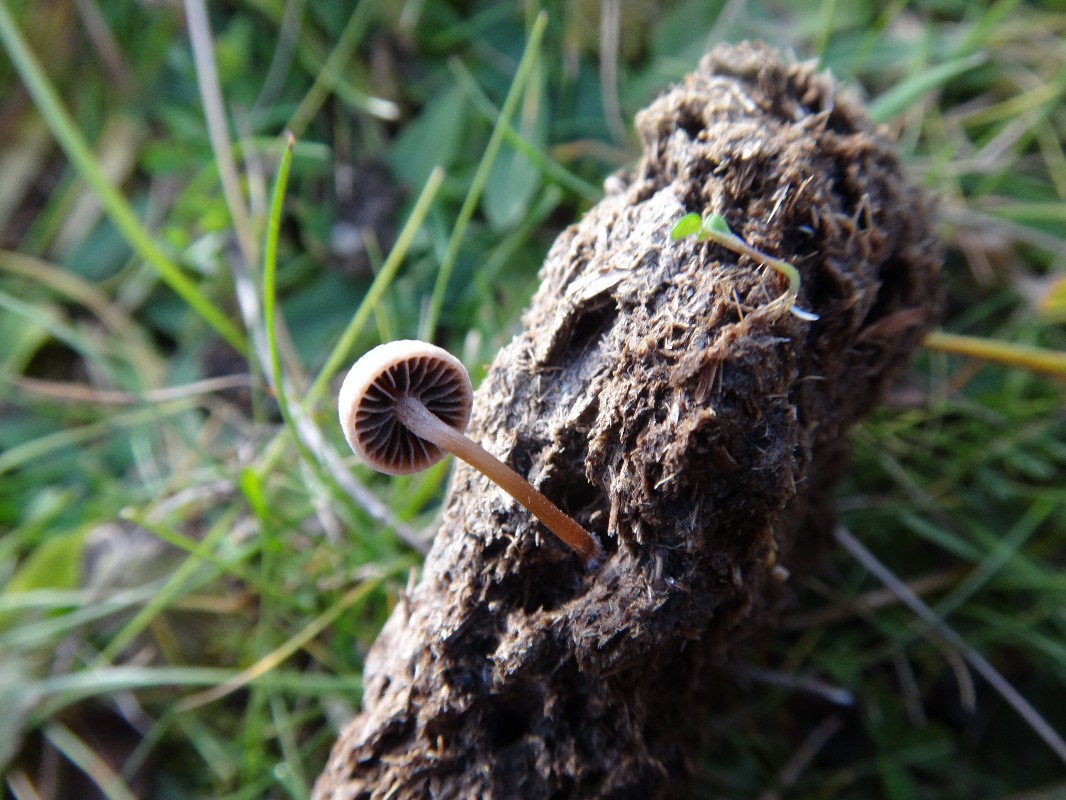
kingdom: Fungi
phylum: Basidiomycota
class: Agaricomycetes
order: Agaricales
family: Bolbitiaceae
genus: Panaeolus
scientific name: Panaeolus subfirmus
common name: fælled-glanshat
